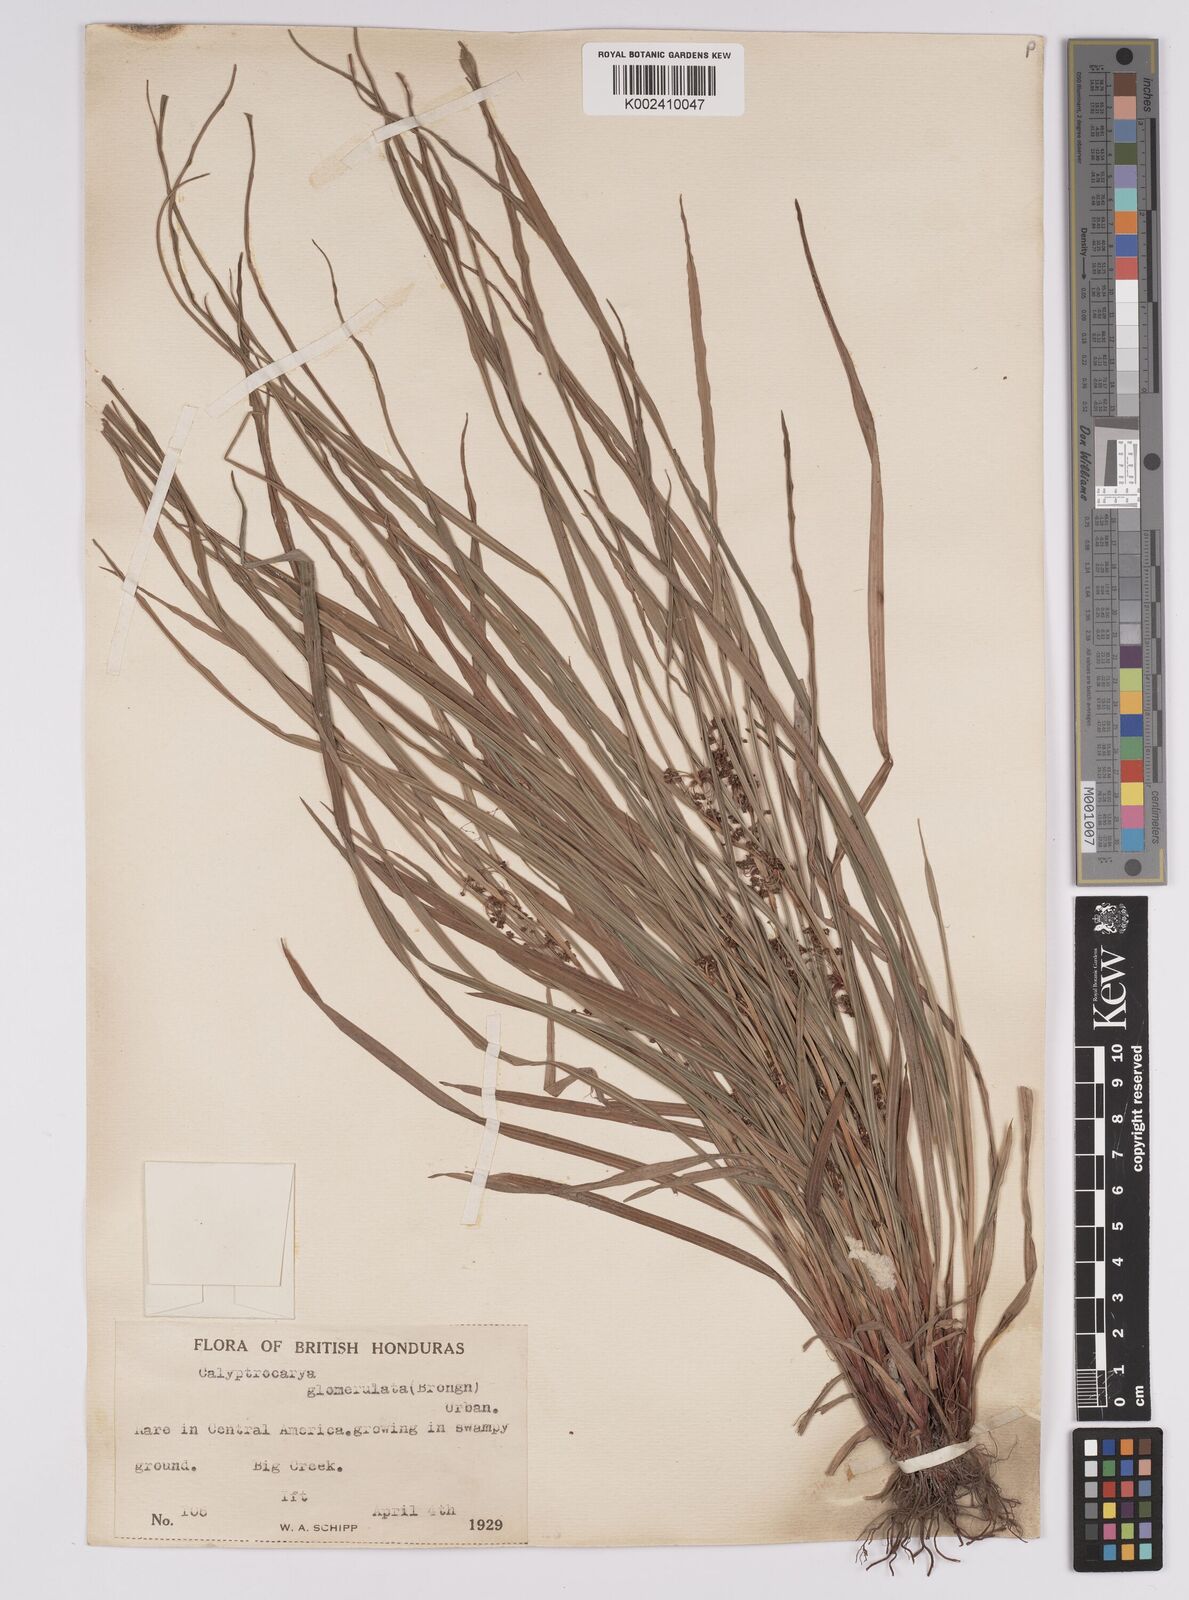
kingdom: Plantae
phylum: Tracheophyta
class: Liliopsida
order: Poales
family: Cyperaceae
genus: Calyptrocarya
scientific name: Calyptrocarya
